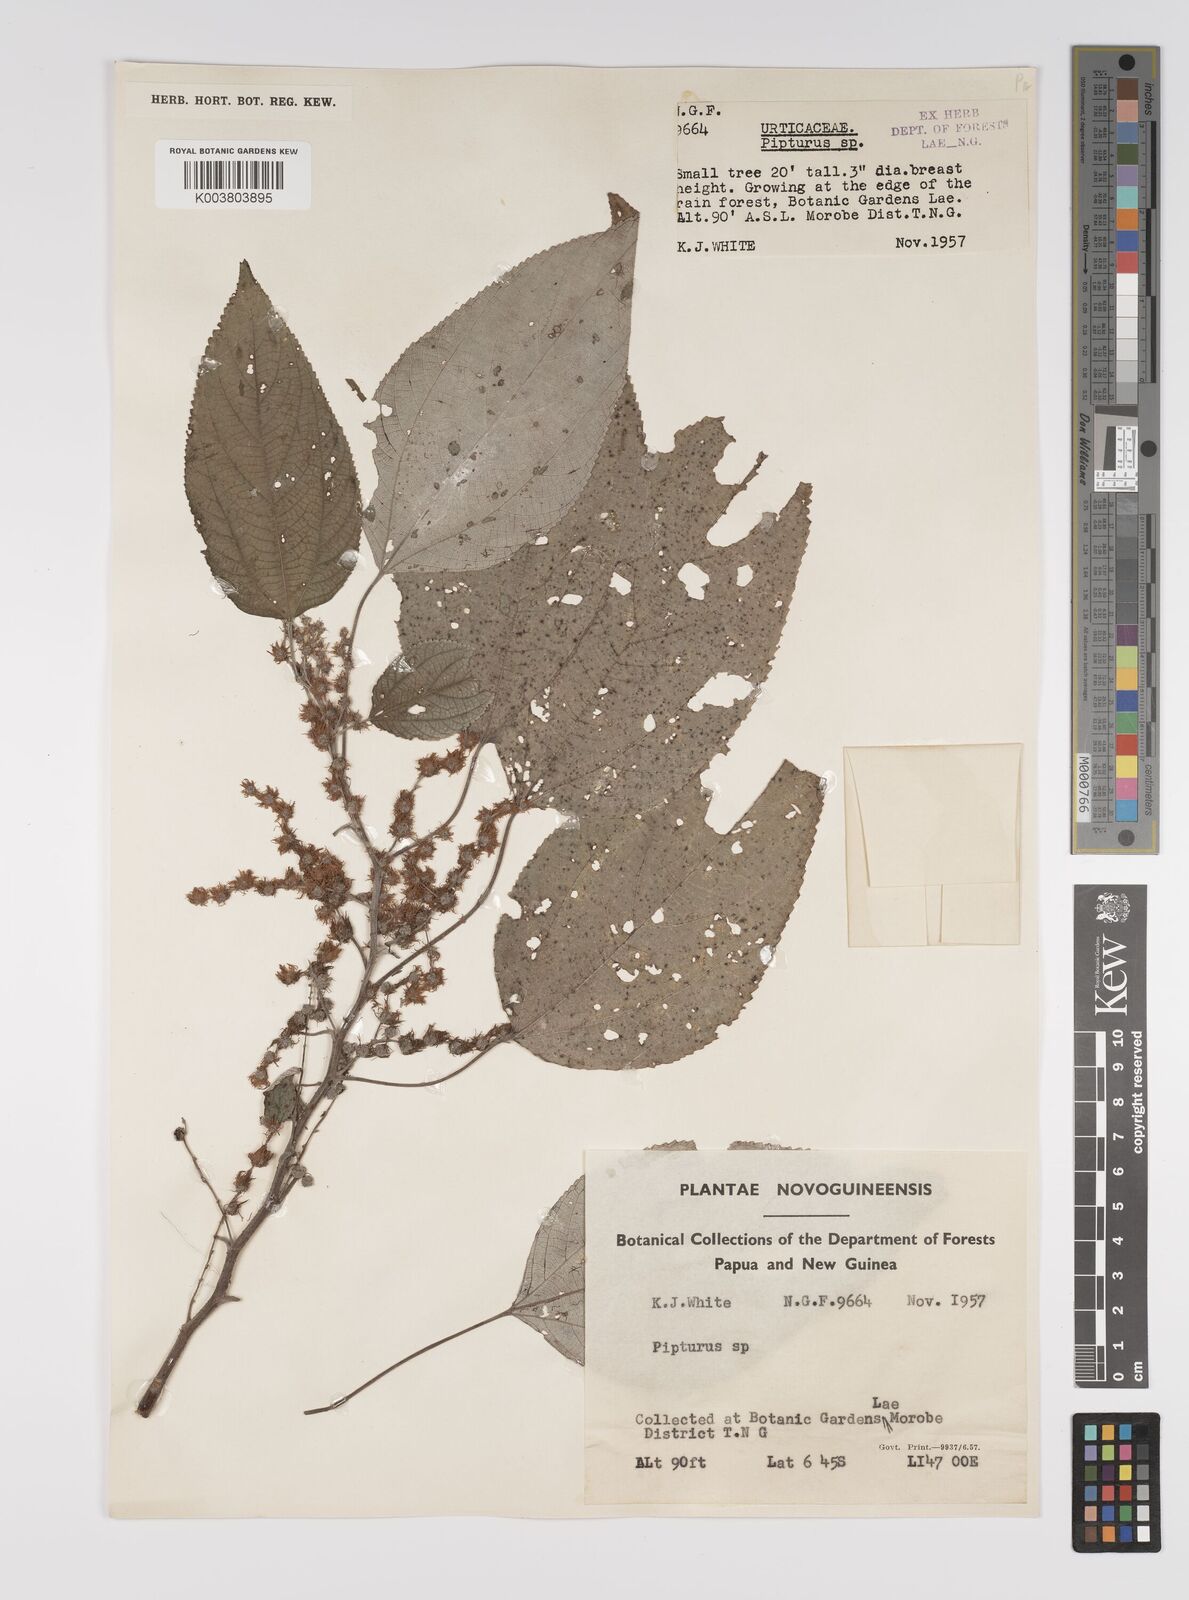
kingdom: Plantae
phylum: Tracheophyta
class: Magnoliopsida
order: Rosales
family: Urticaceae
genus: Pipturus
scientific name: Pipturus argenteus
